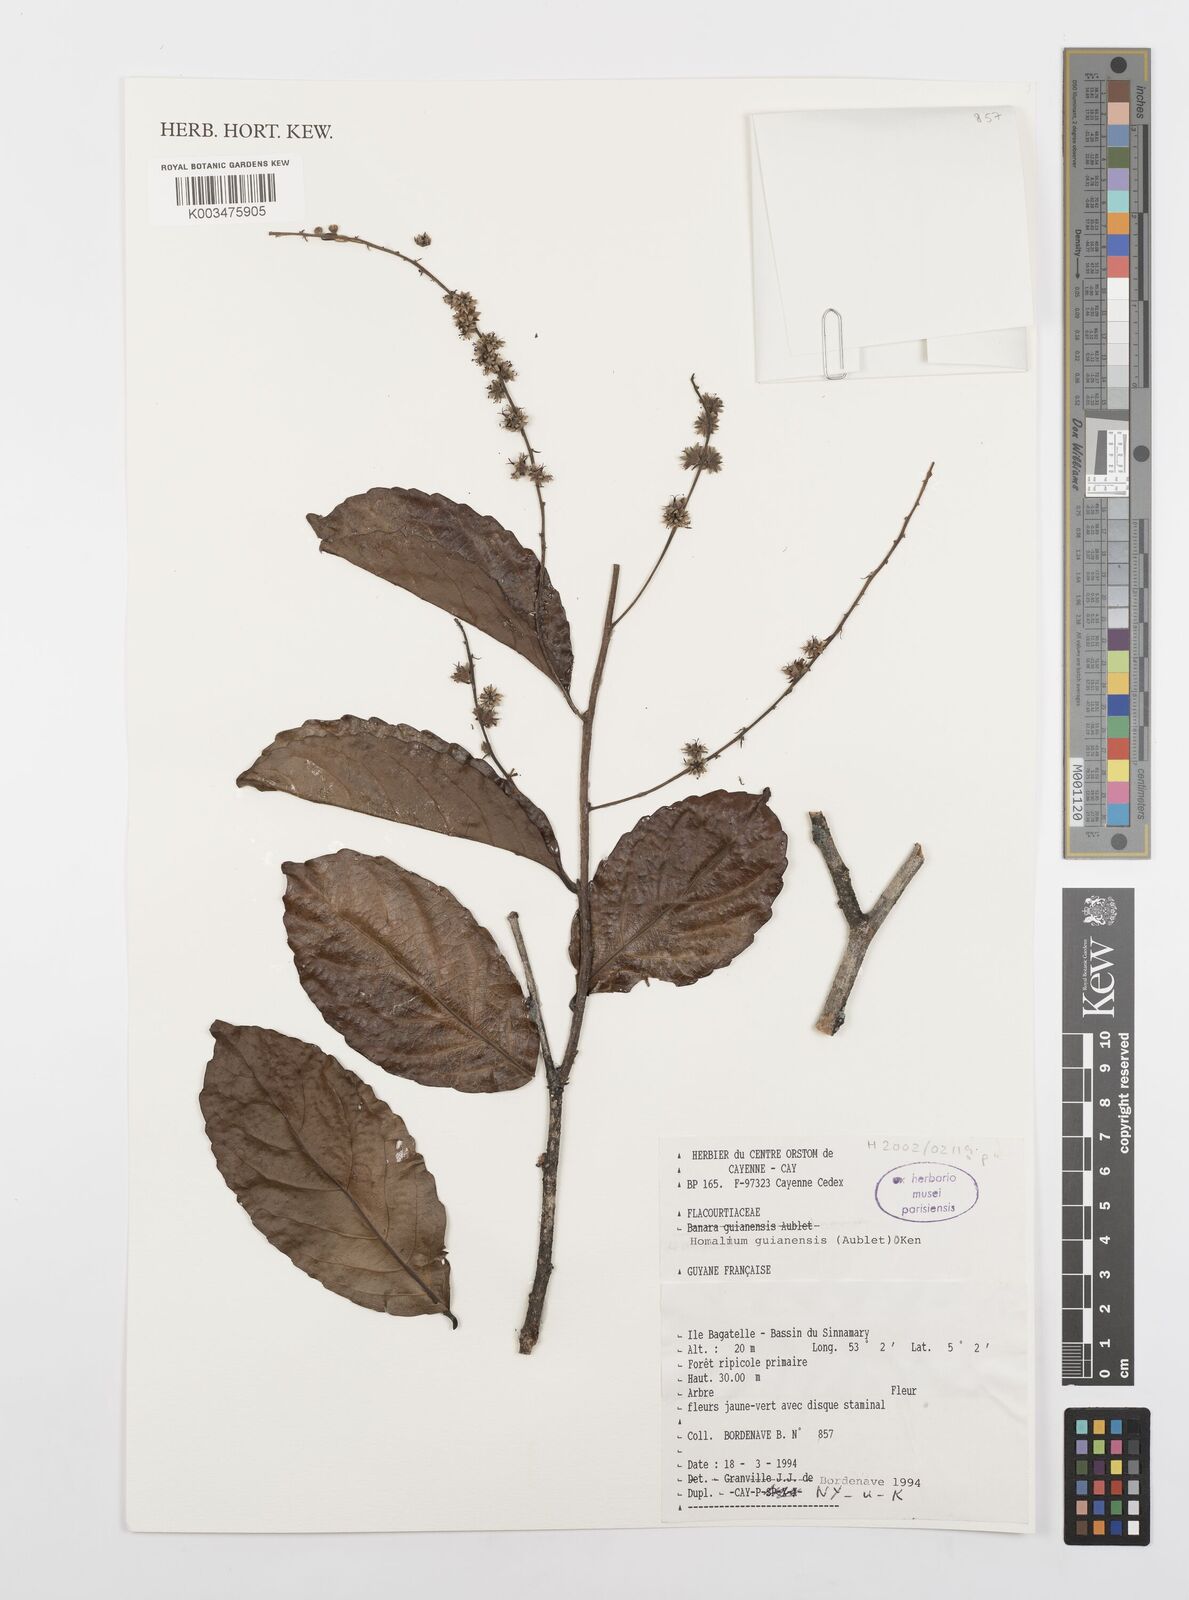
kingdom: Plantae
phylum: Tracheophyta
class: Magnoliopsida
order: Malpighiales
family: Salicaceae
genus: Homalium
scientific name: Homalium guianense
